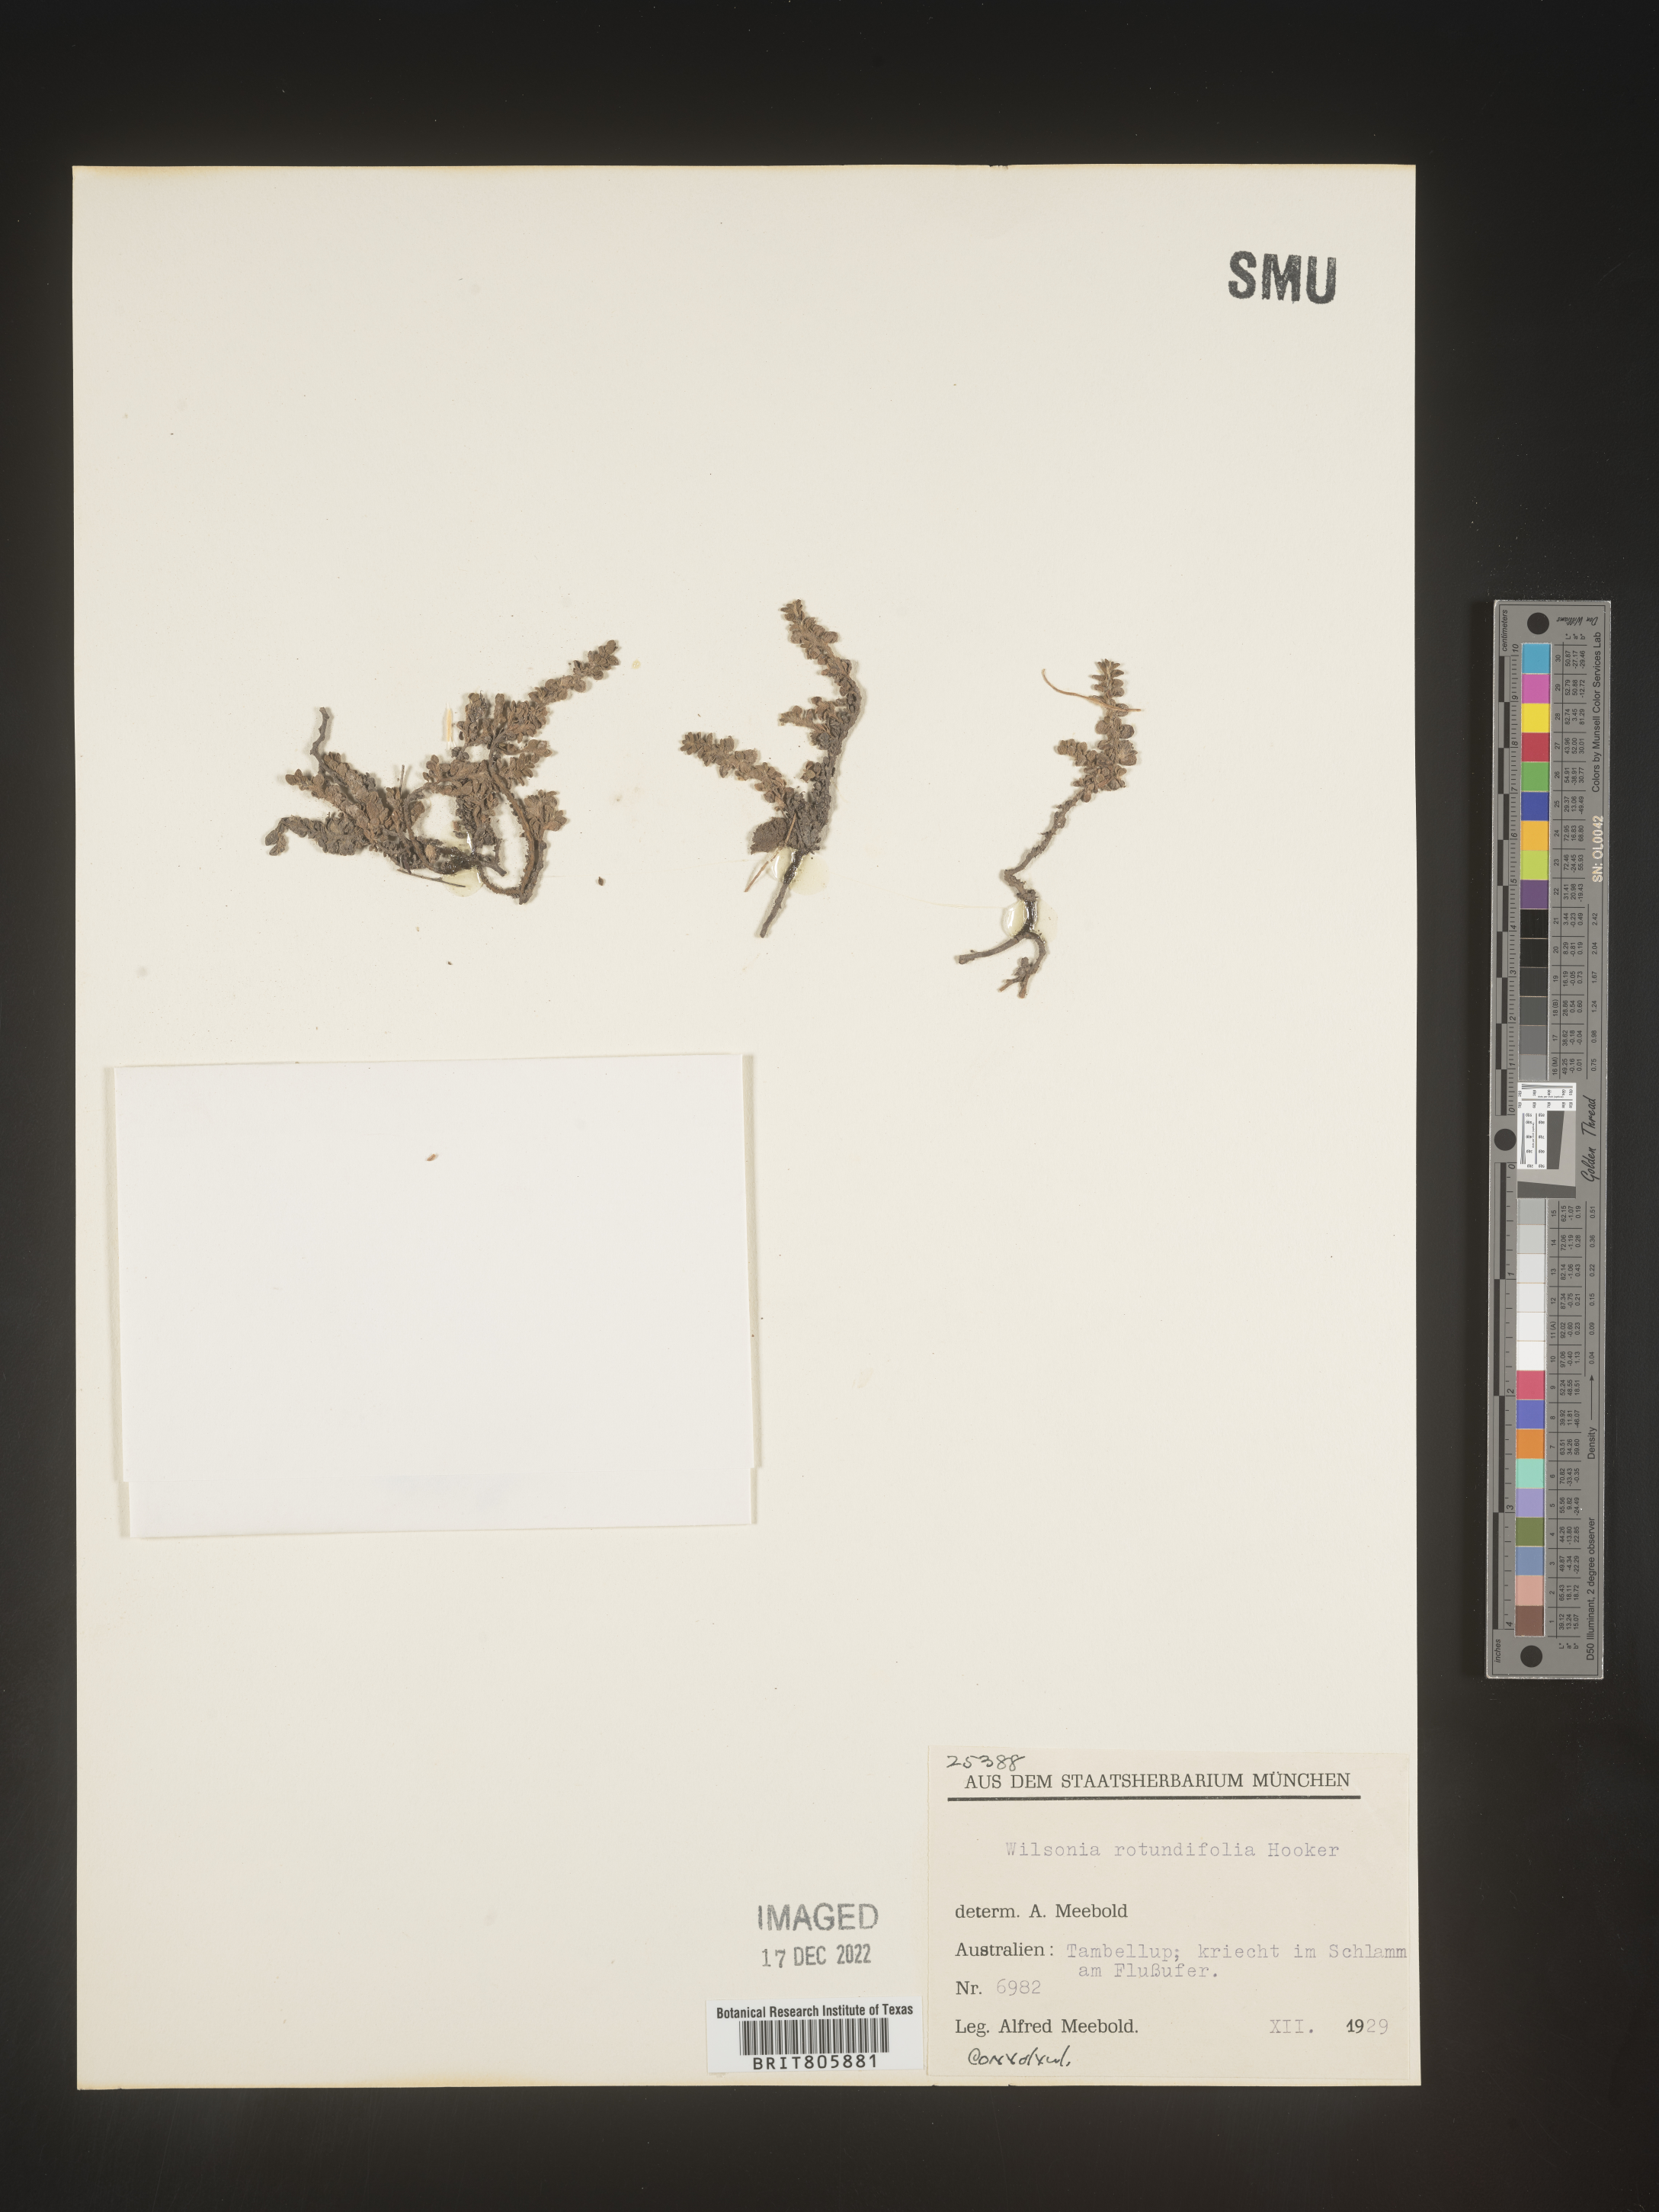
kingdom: Plantae
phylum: Tracheophyta
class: Magnoliopsida
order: Solanales
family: Convolvulaceae
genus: Wilsonia
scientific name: Wilsonia
